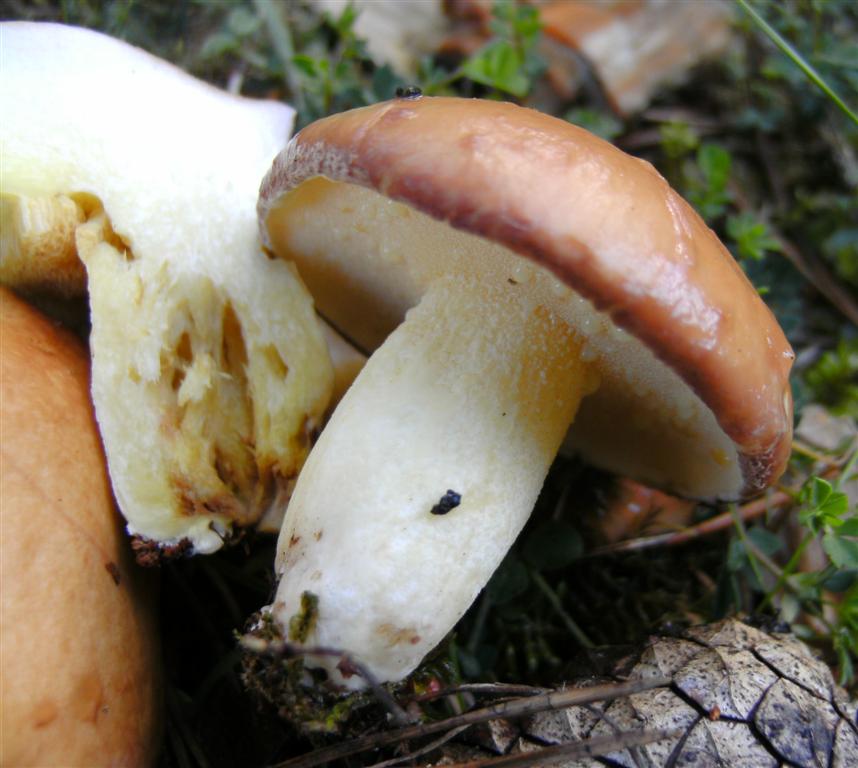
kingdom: Fungi
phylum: Basidiomycota
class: Agaricomycetes
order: Boletales
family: Suillaceae
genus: Suillus
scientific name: Suillus granulatus
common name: kornet slimrørhat
